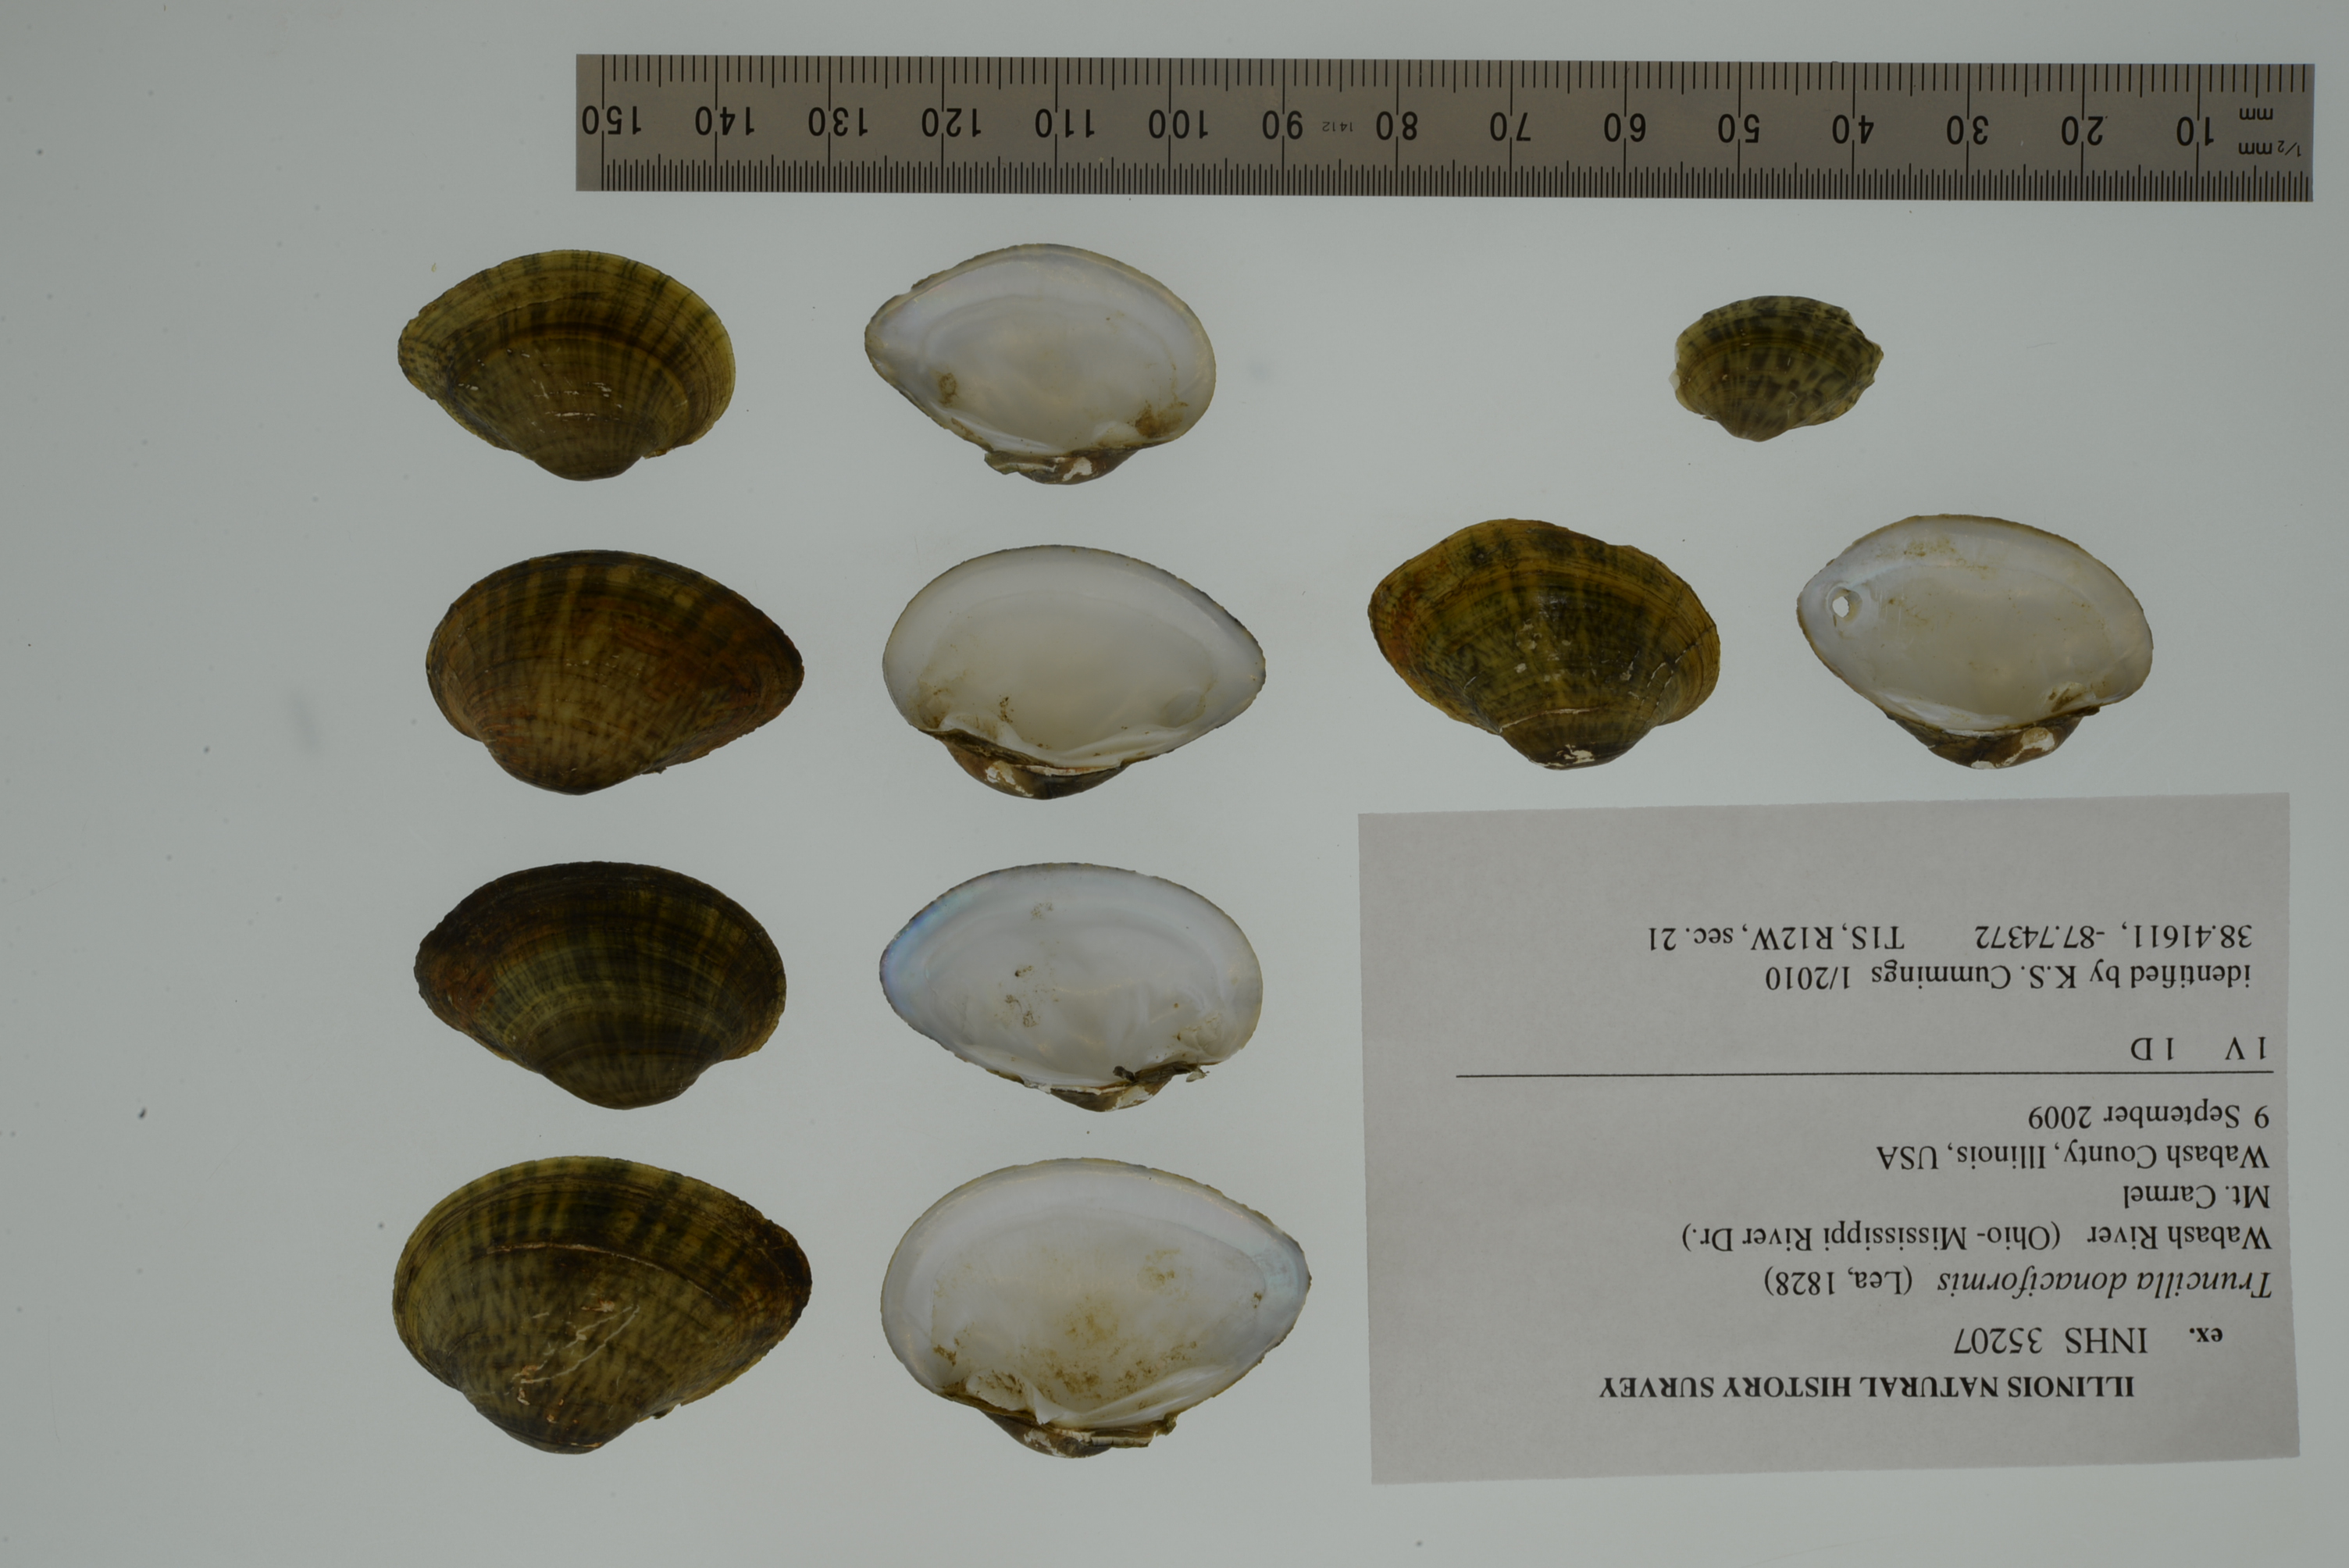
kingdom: Animalia
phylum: Mollusca
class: Bivalvia
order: Unionida
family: Unionidae
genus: Truncilla
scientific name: Truncilla donaciformis
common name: Fawnsfoot
